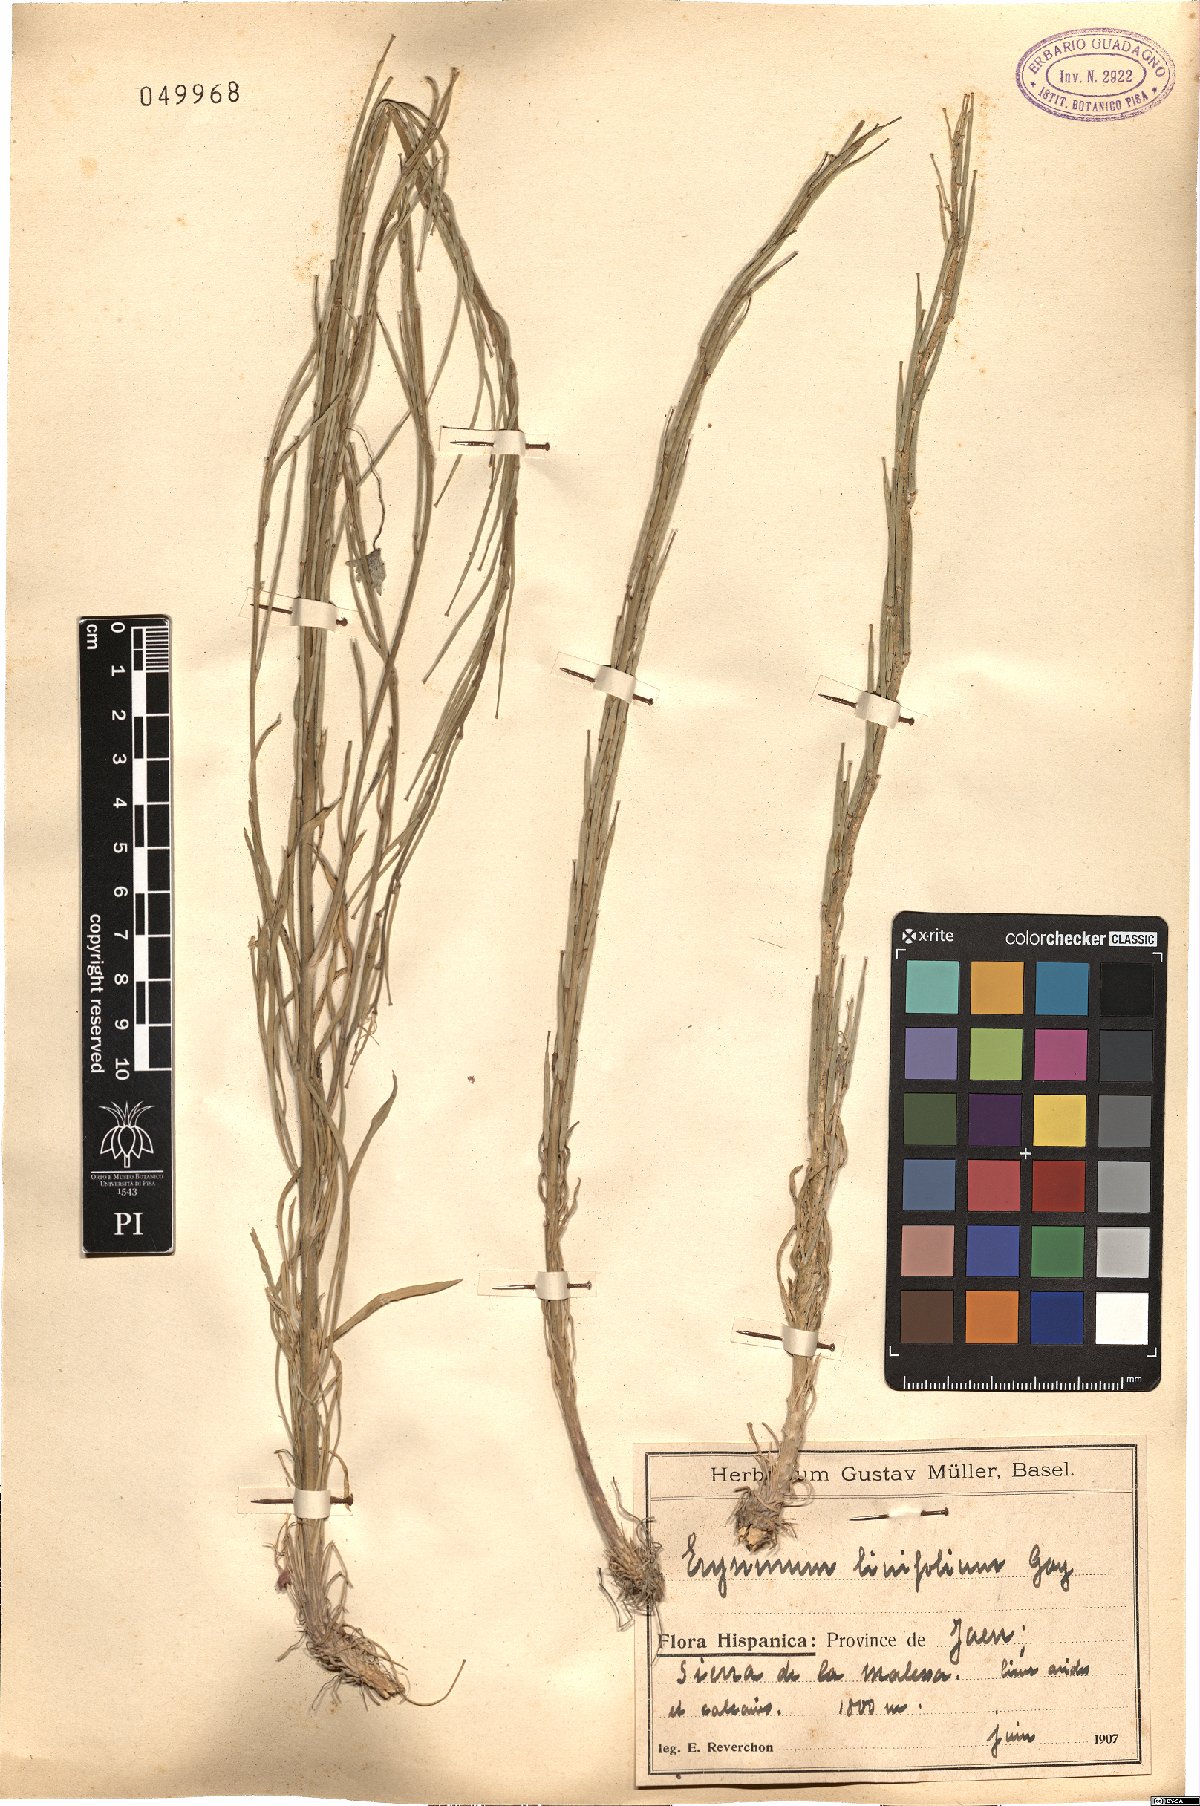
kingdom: Plantae
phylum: Tracheophyta
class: Magnoliopsida
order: Brassicales
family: Brassicaceae
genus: Erysimum
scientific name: Erysimum linifolium
